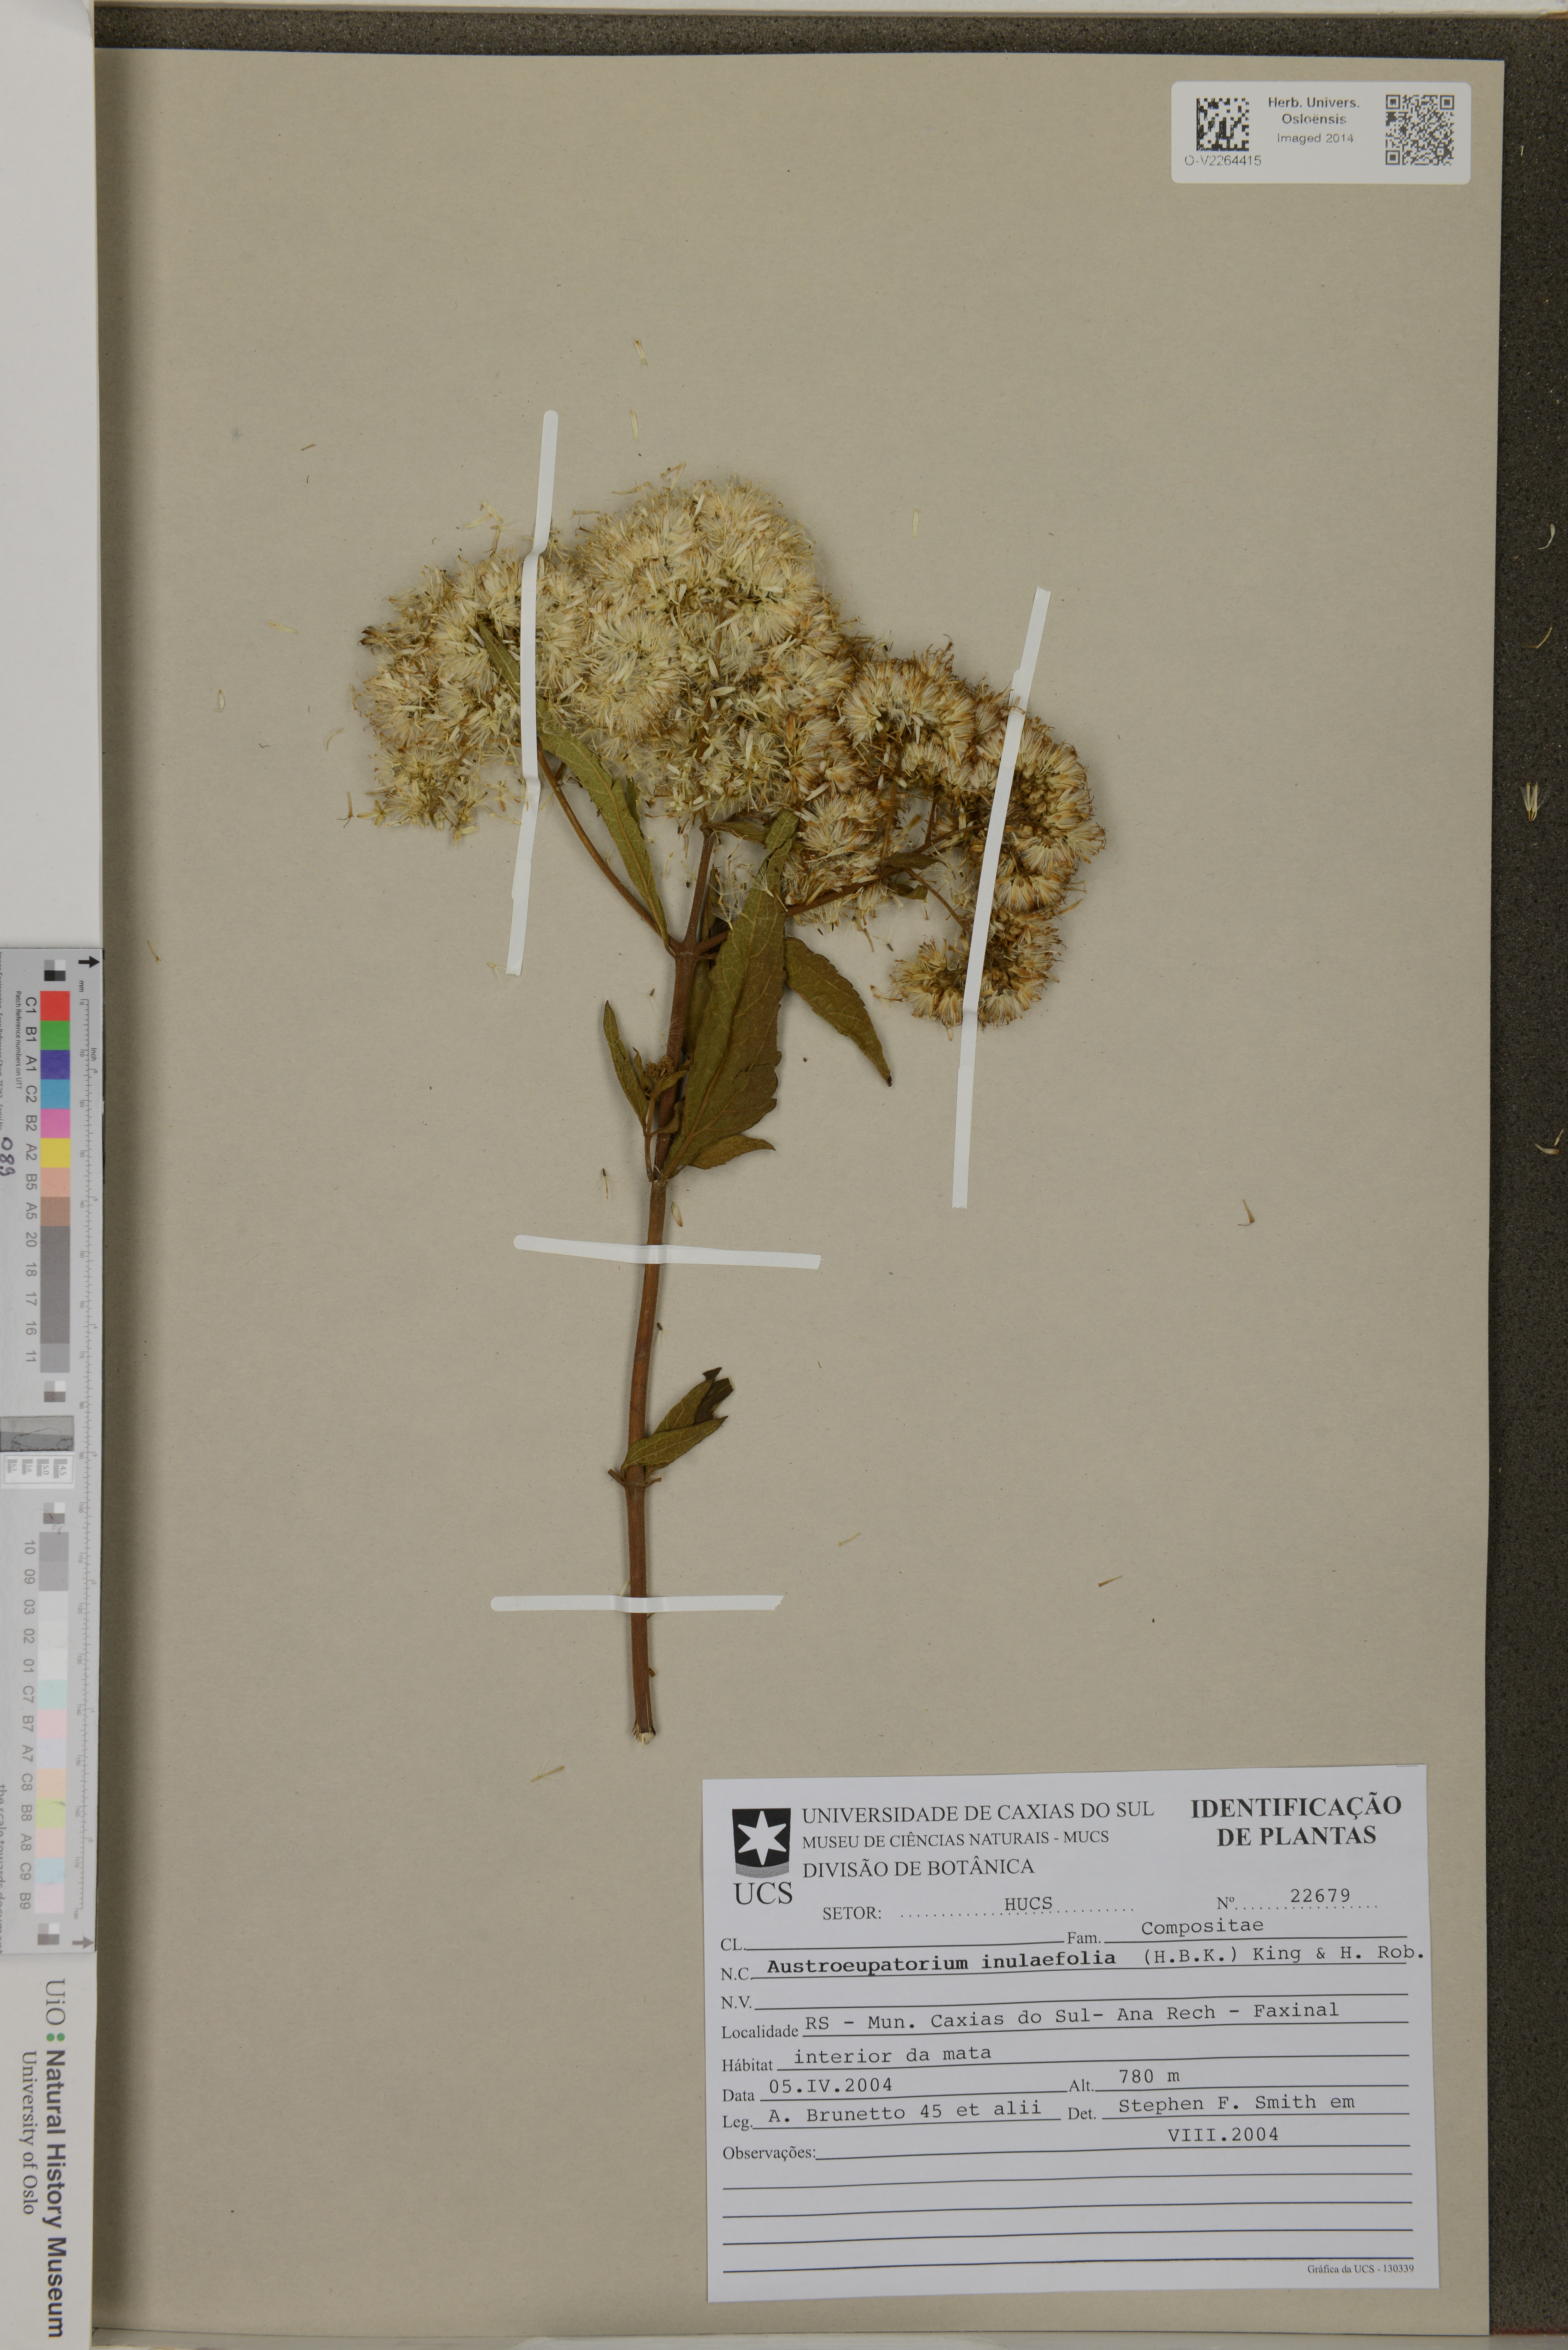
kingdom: Plantae
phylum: Tracheophyta
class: Magnoliopsida
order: Asterales
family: Asteraceae
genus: Austroeupatorium
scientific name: Austroeupatorium inulaefolium
